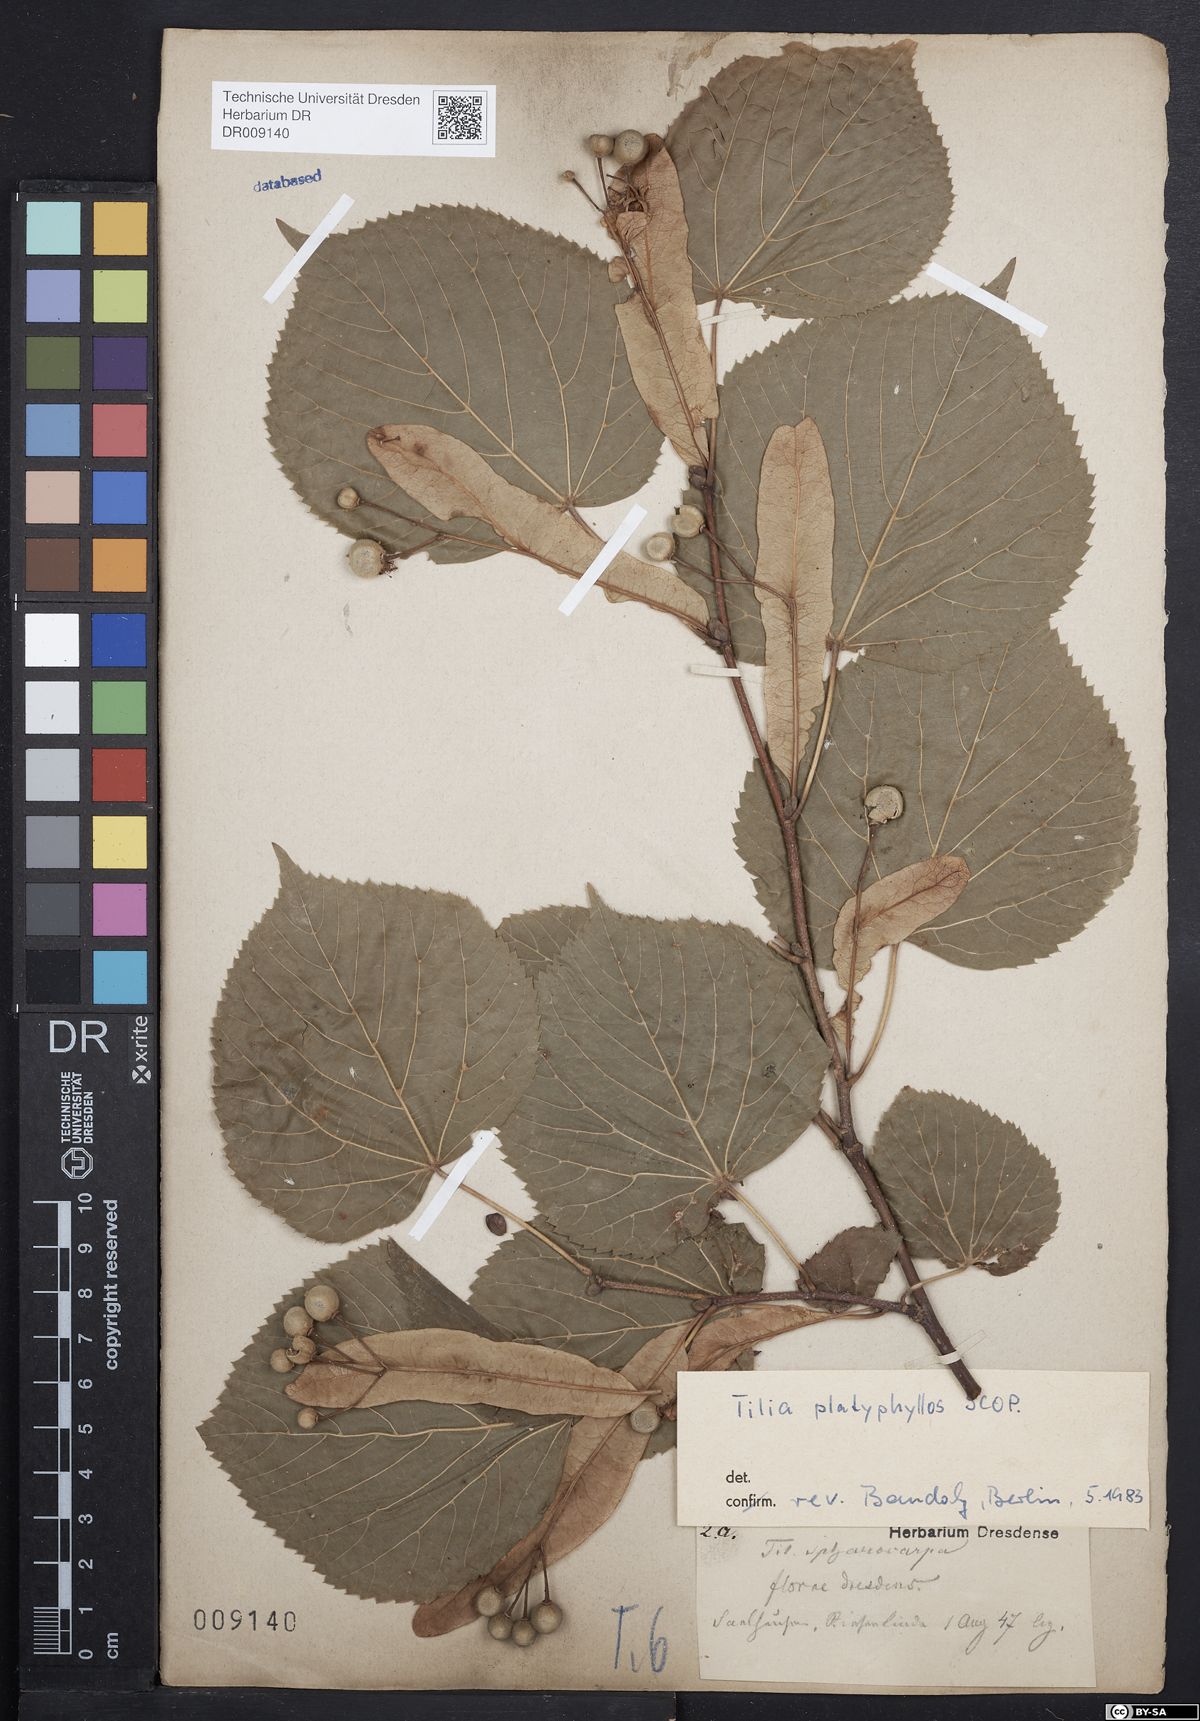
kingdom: Plantae
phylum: Tracheophyta
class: Magnoliopsida
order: Malvales
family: Malvaceae
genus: Tilia
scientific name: Tilia platyphyllos
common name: Large-leaved lime
